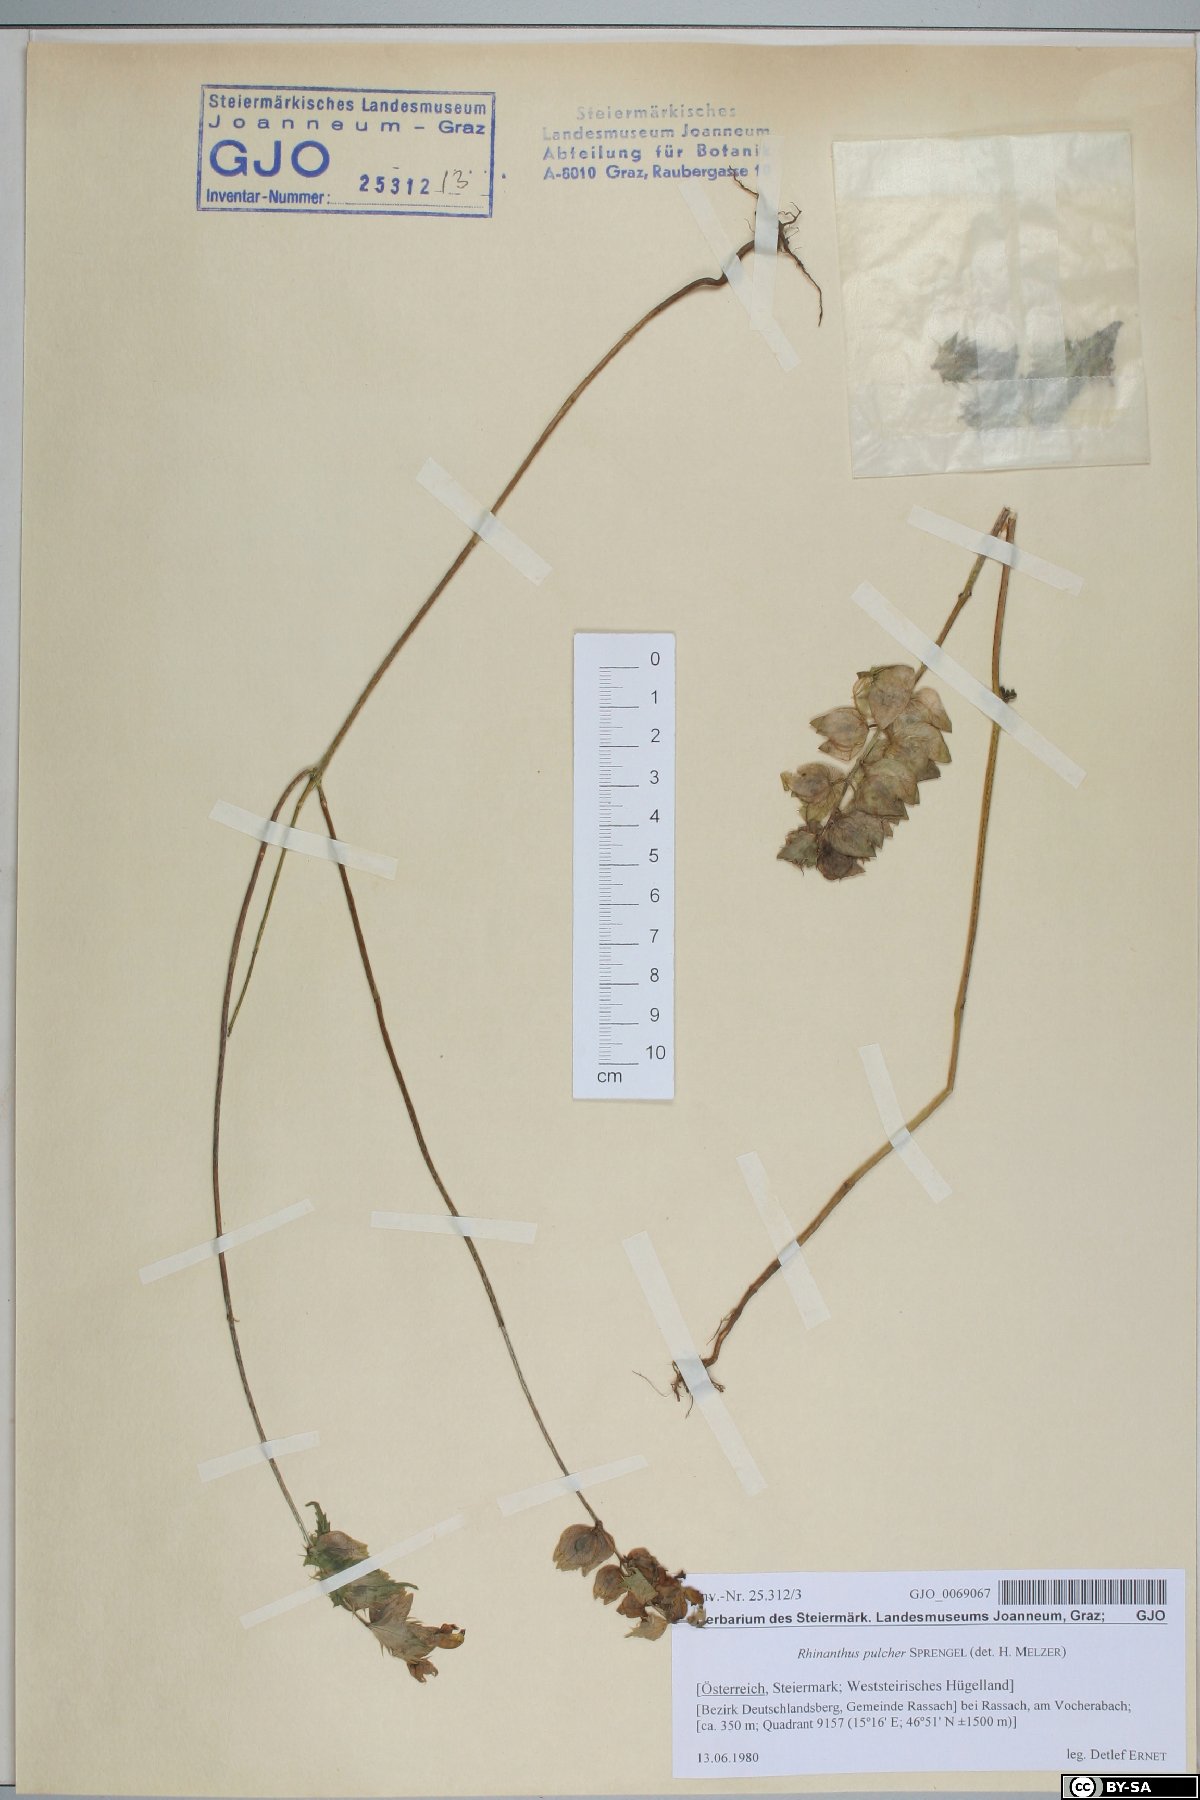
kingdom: Plantae
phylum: Tracheophyta
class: Magnoliopsida
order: Lamiales
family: Orobanchaceae
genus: Rhinanthus
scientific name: Rhinanthus riphaeus
